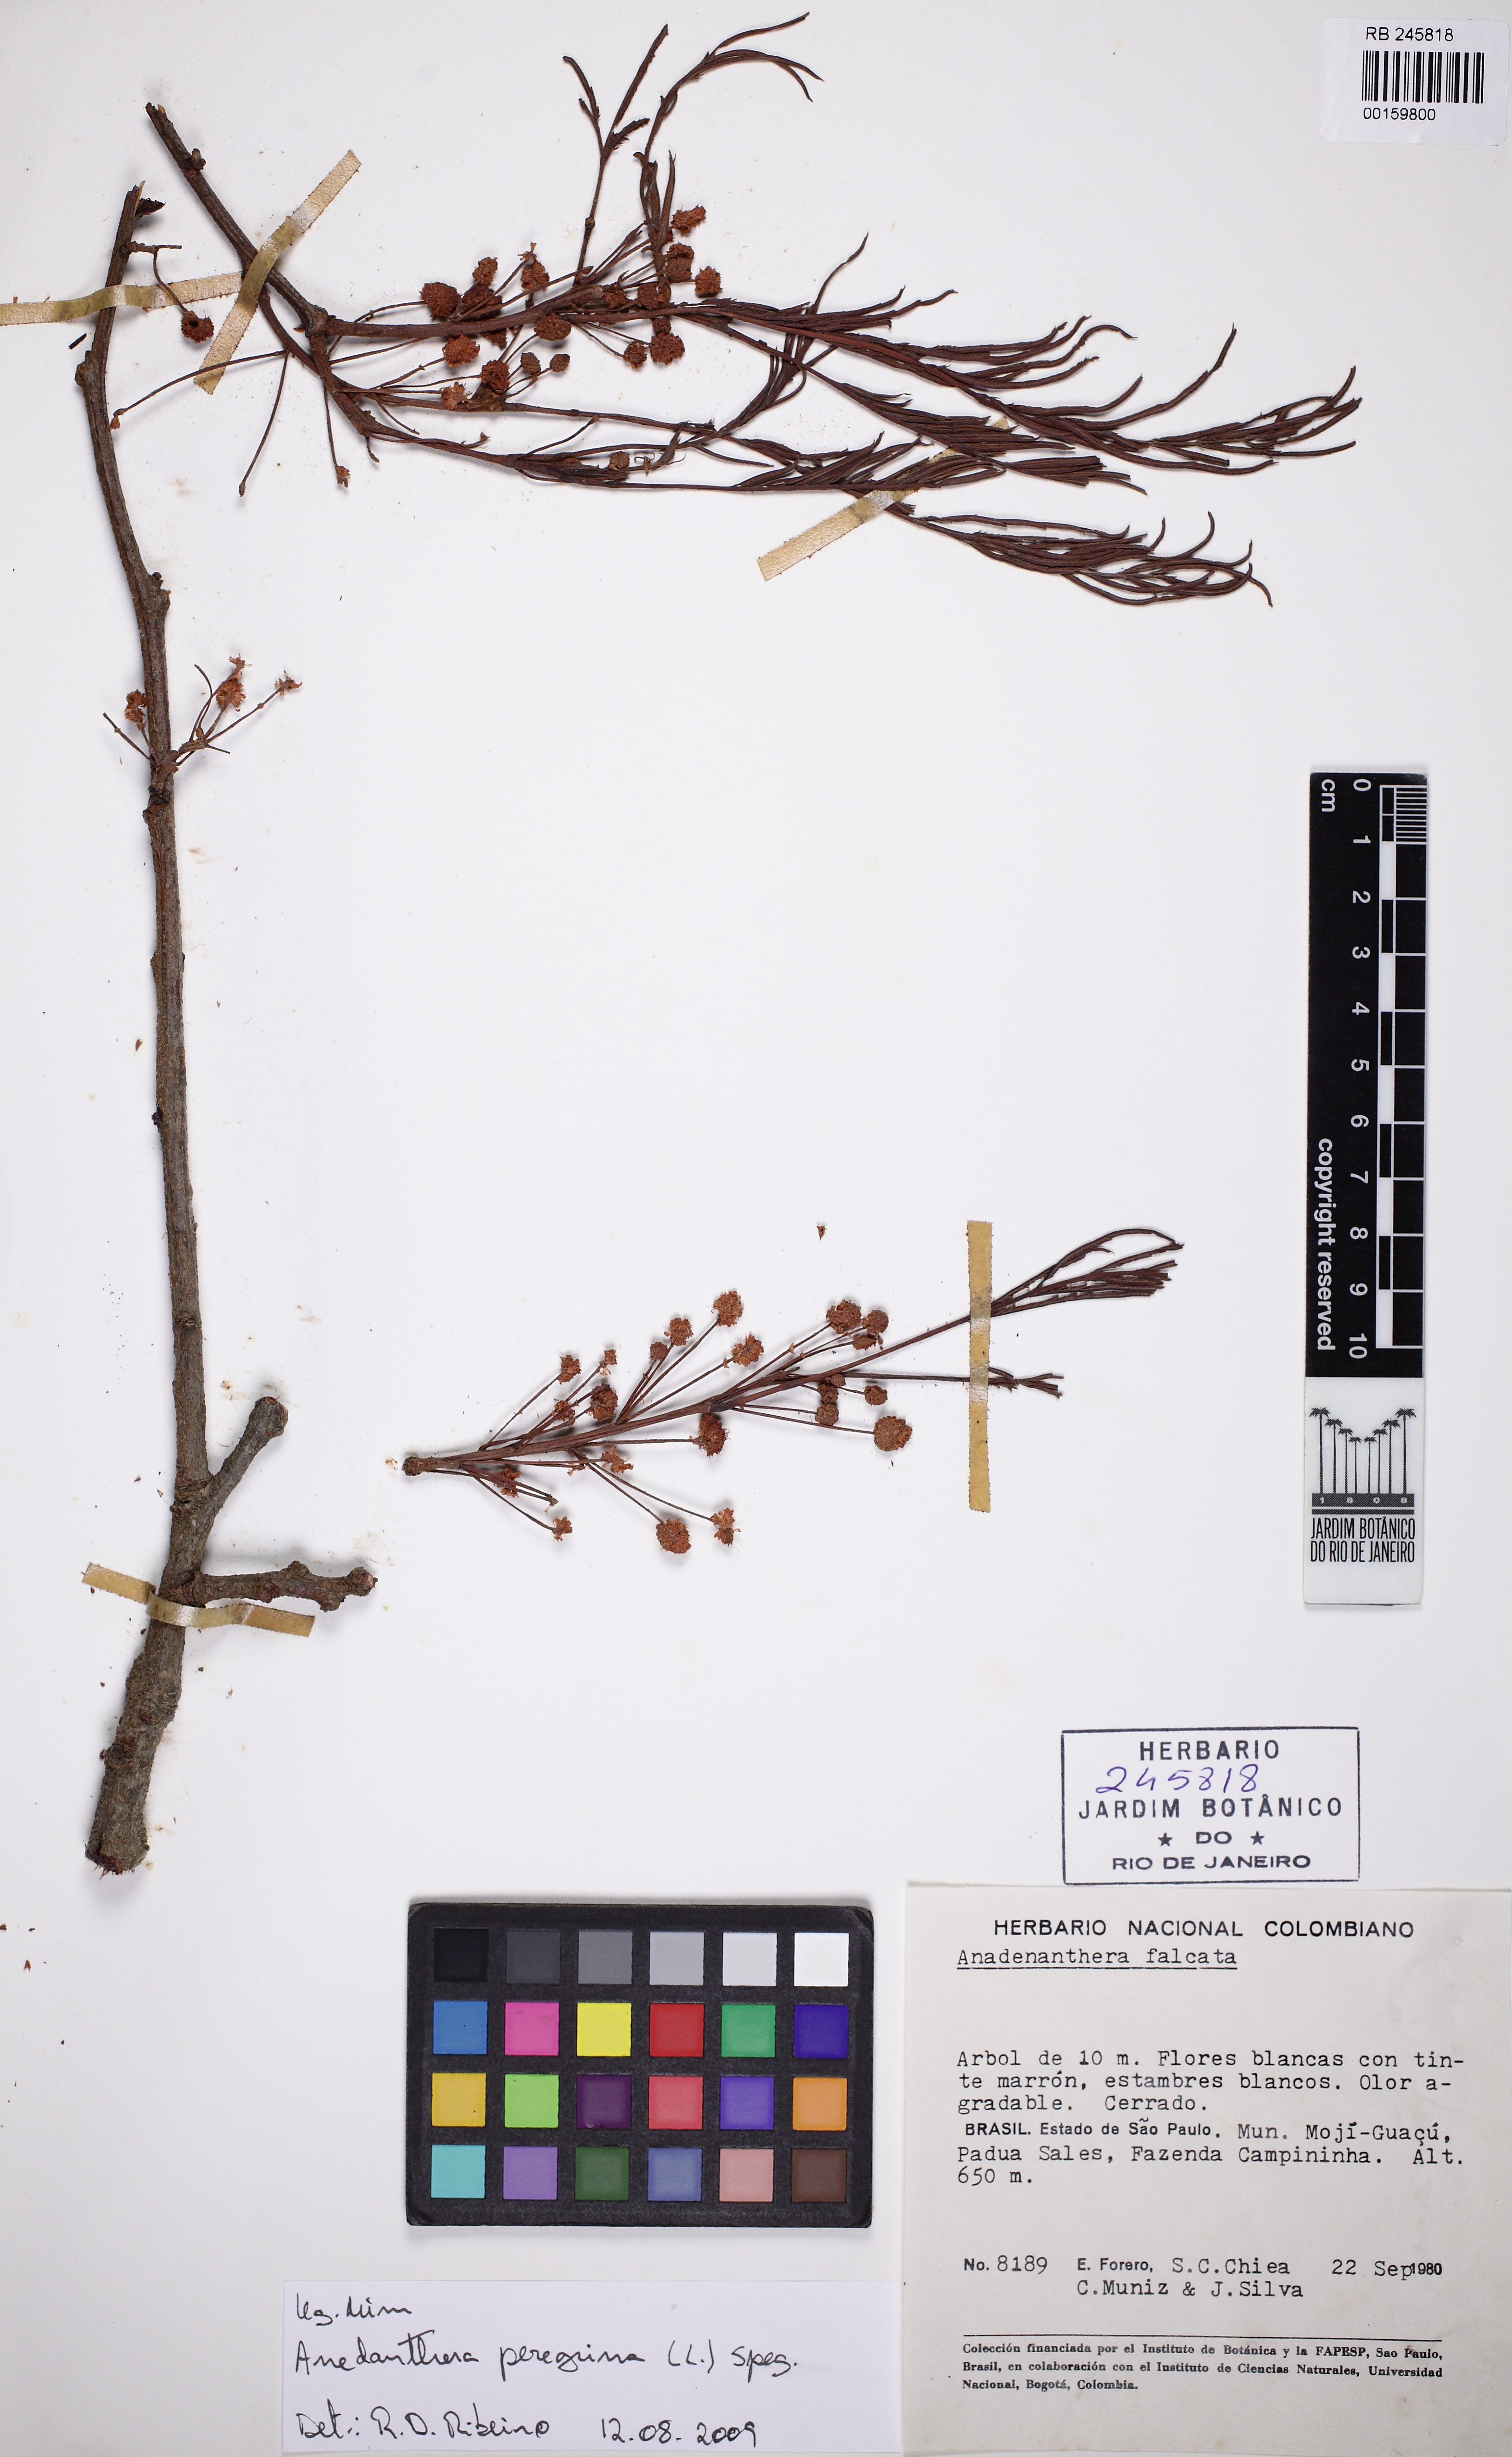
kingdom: Plantae
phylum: Tracheophyta
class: Magnoliopsida
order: Fabales
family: Fabaceae
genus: Anadenanthera
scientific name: Anadenanthera peregrina
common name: Cohoba
